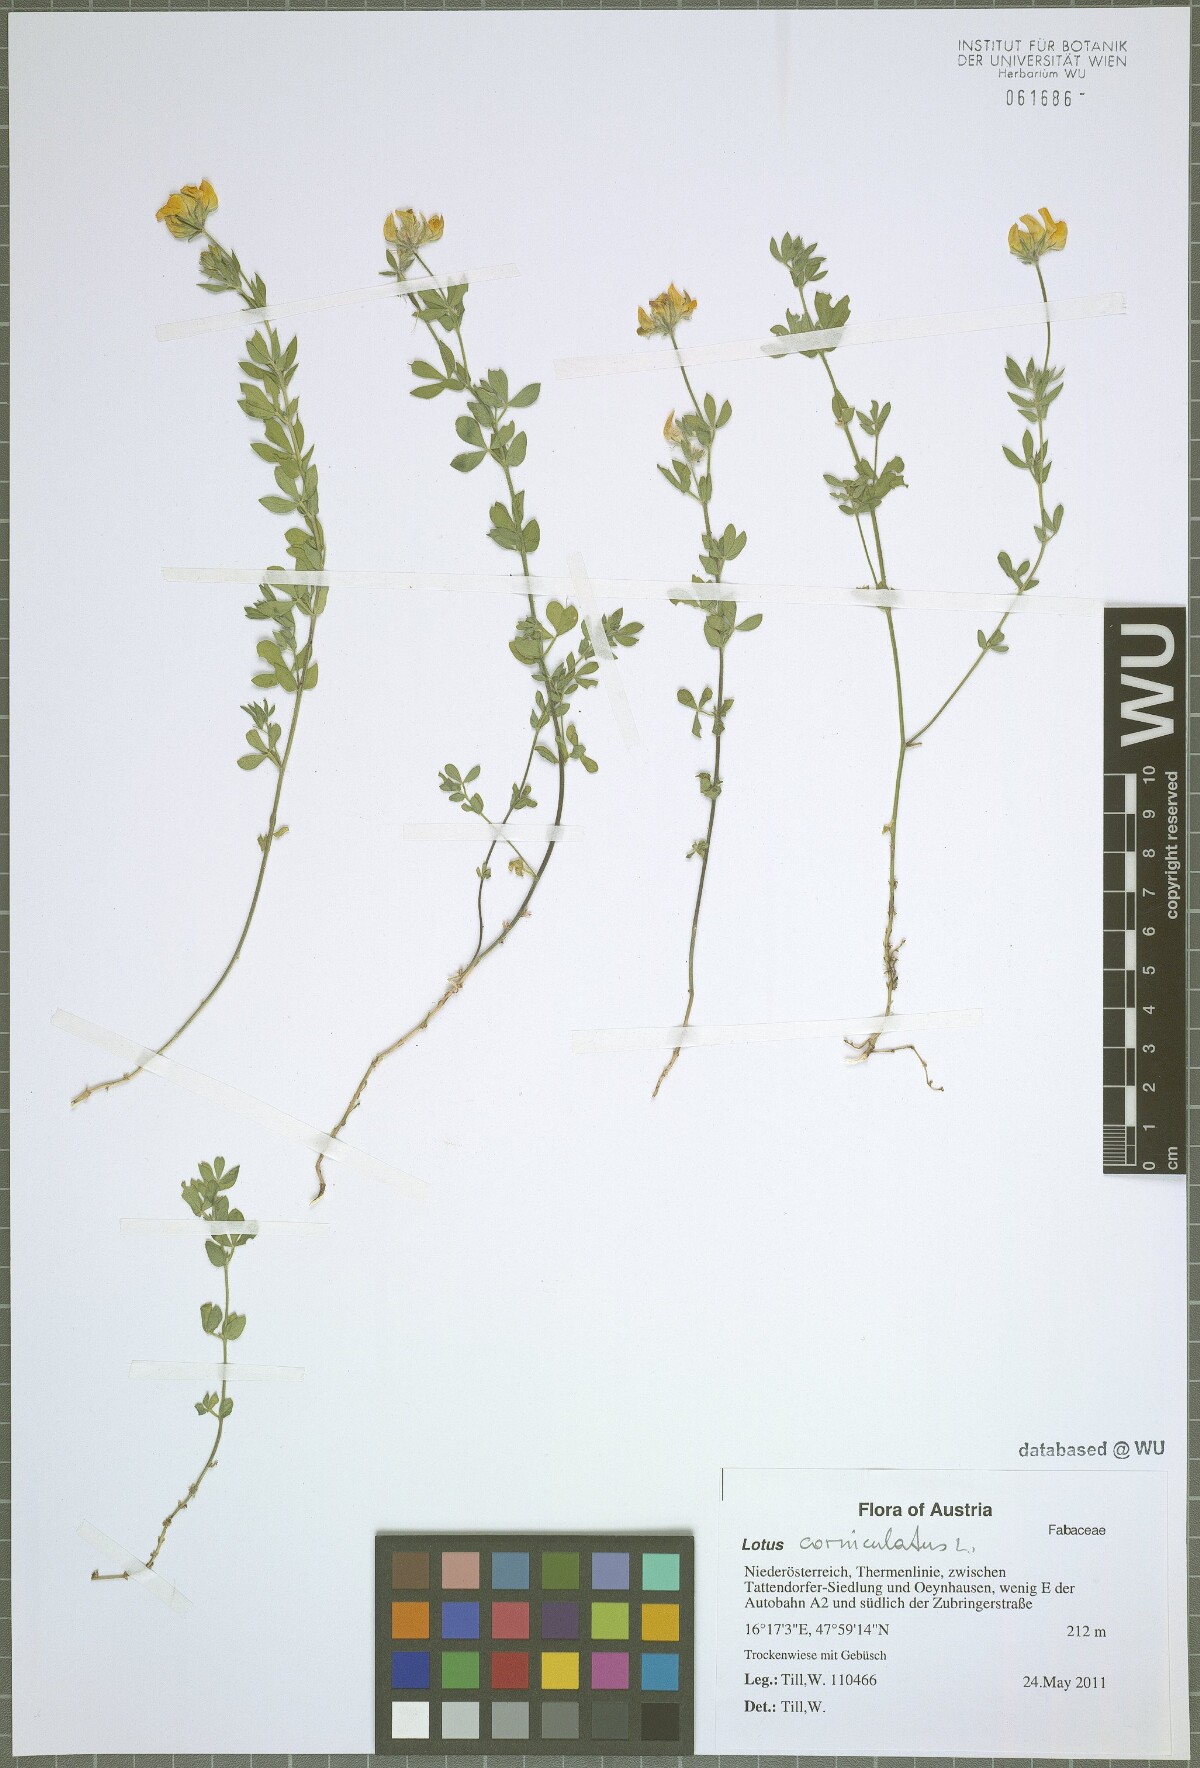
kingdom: Plantae
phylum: Tracheophyta
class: Magnoliopsida
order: Fabales
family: Fabaceae
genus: Lotus
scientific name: Lotus corniculatus
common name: Common bird's-foot-trefoil
